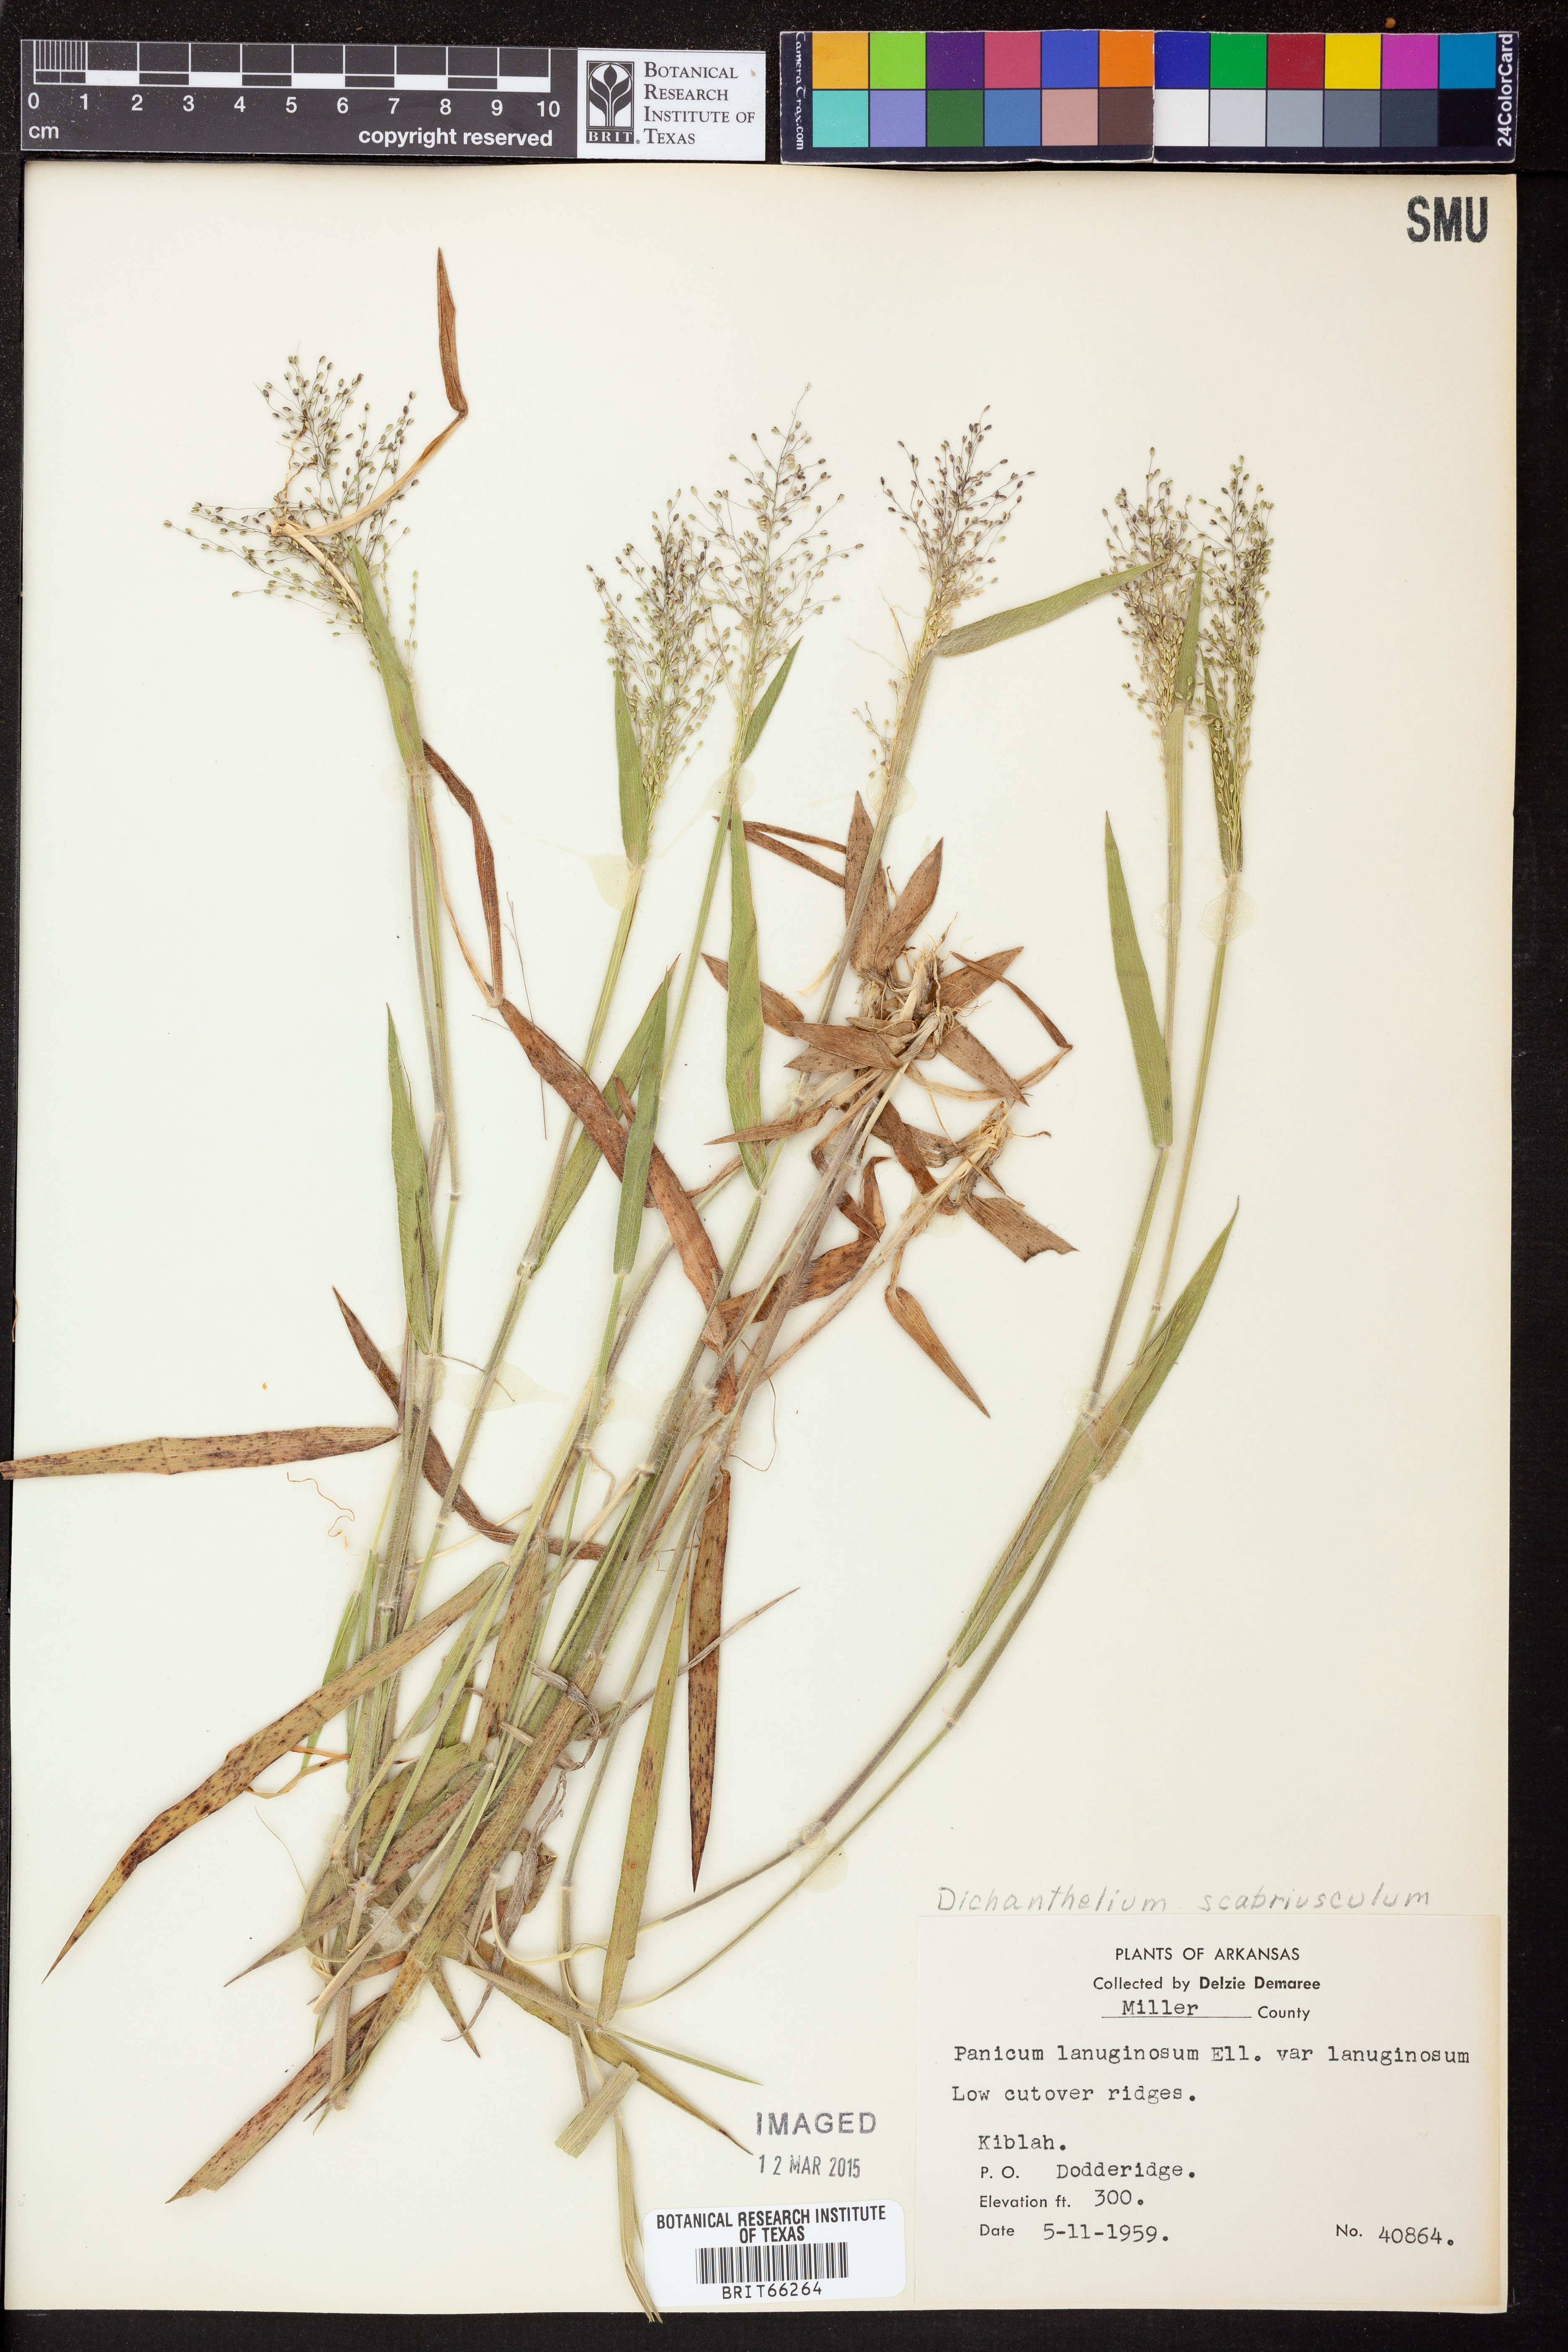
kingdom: Plantae
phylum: Tracheophyta
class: Liliopsida
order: Poales
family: Poaceae
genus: Dichanthelium
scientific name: Dichanthelium acuminatum
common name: Hairy panic grass
